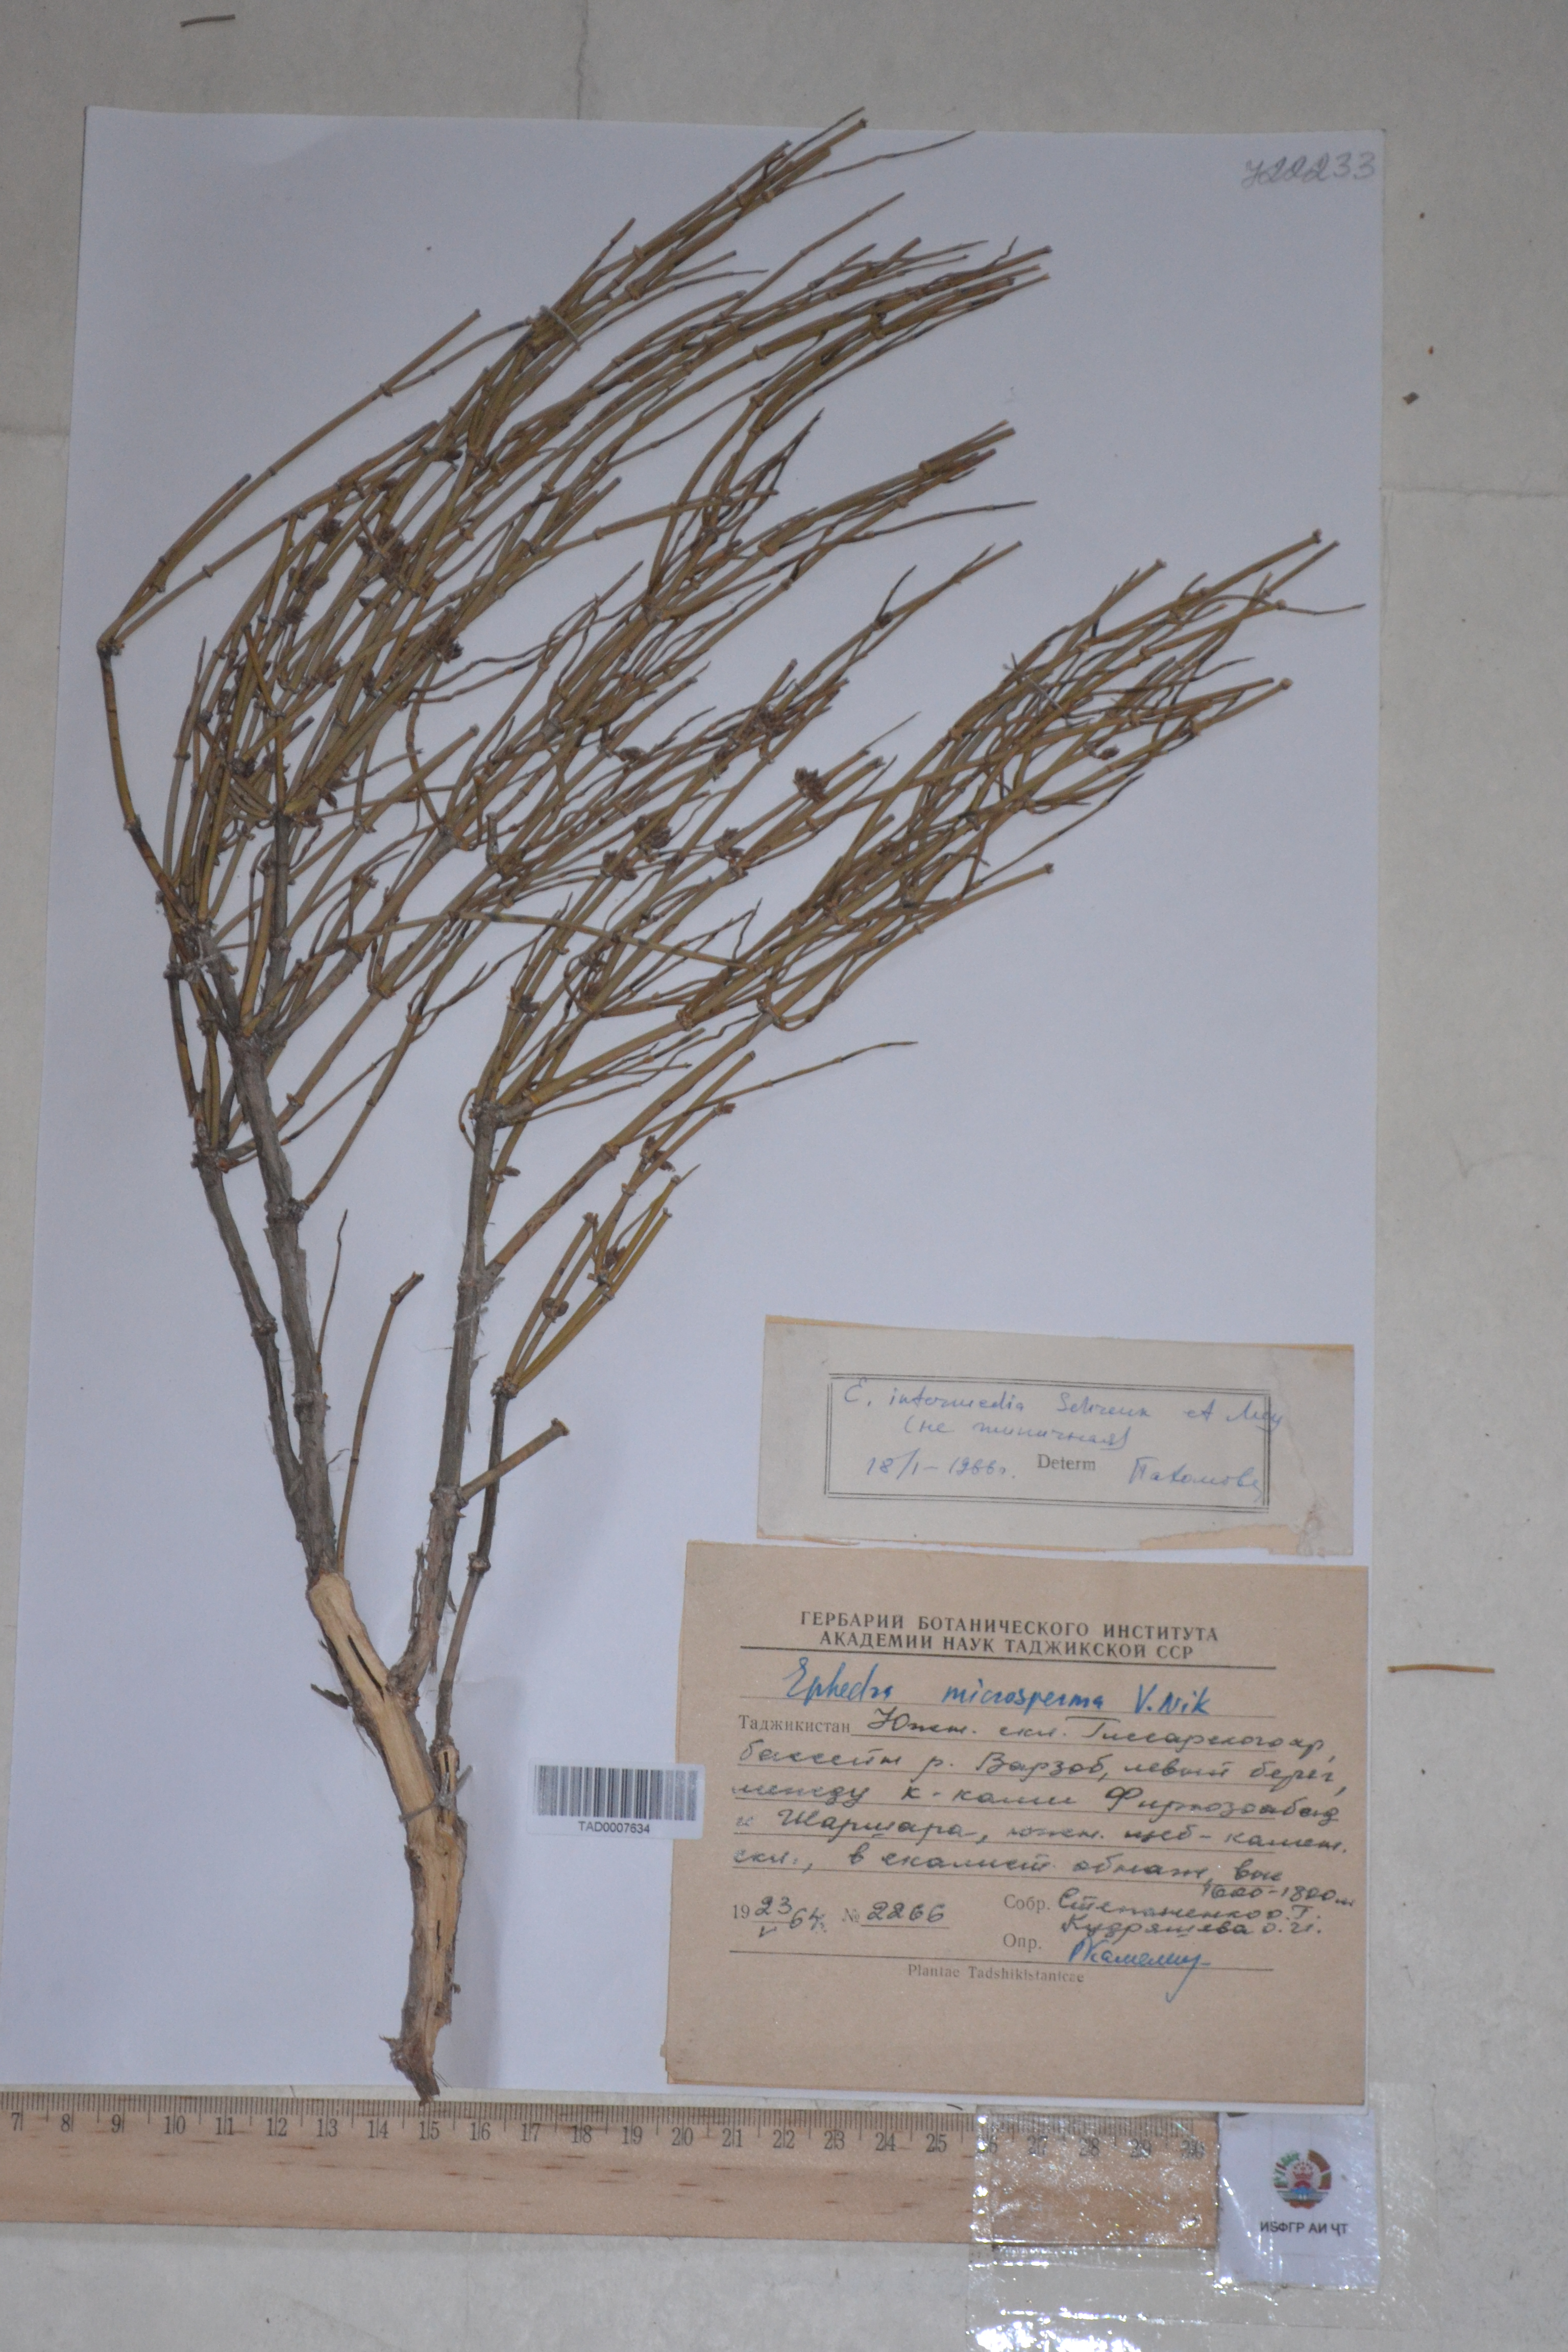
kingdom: Plantae
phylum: Tracheophyta
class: Gnetopsida
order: Ephedrales
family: Ephedraceae
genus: Ephedra
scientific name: Ephedra intermedia
